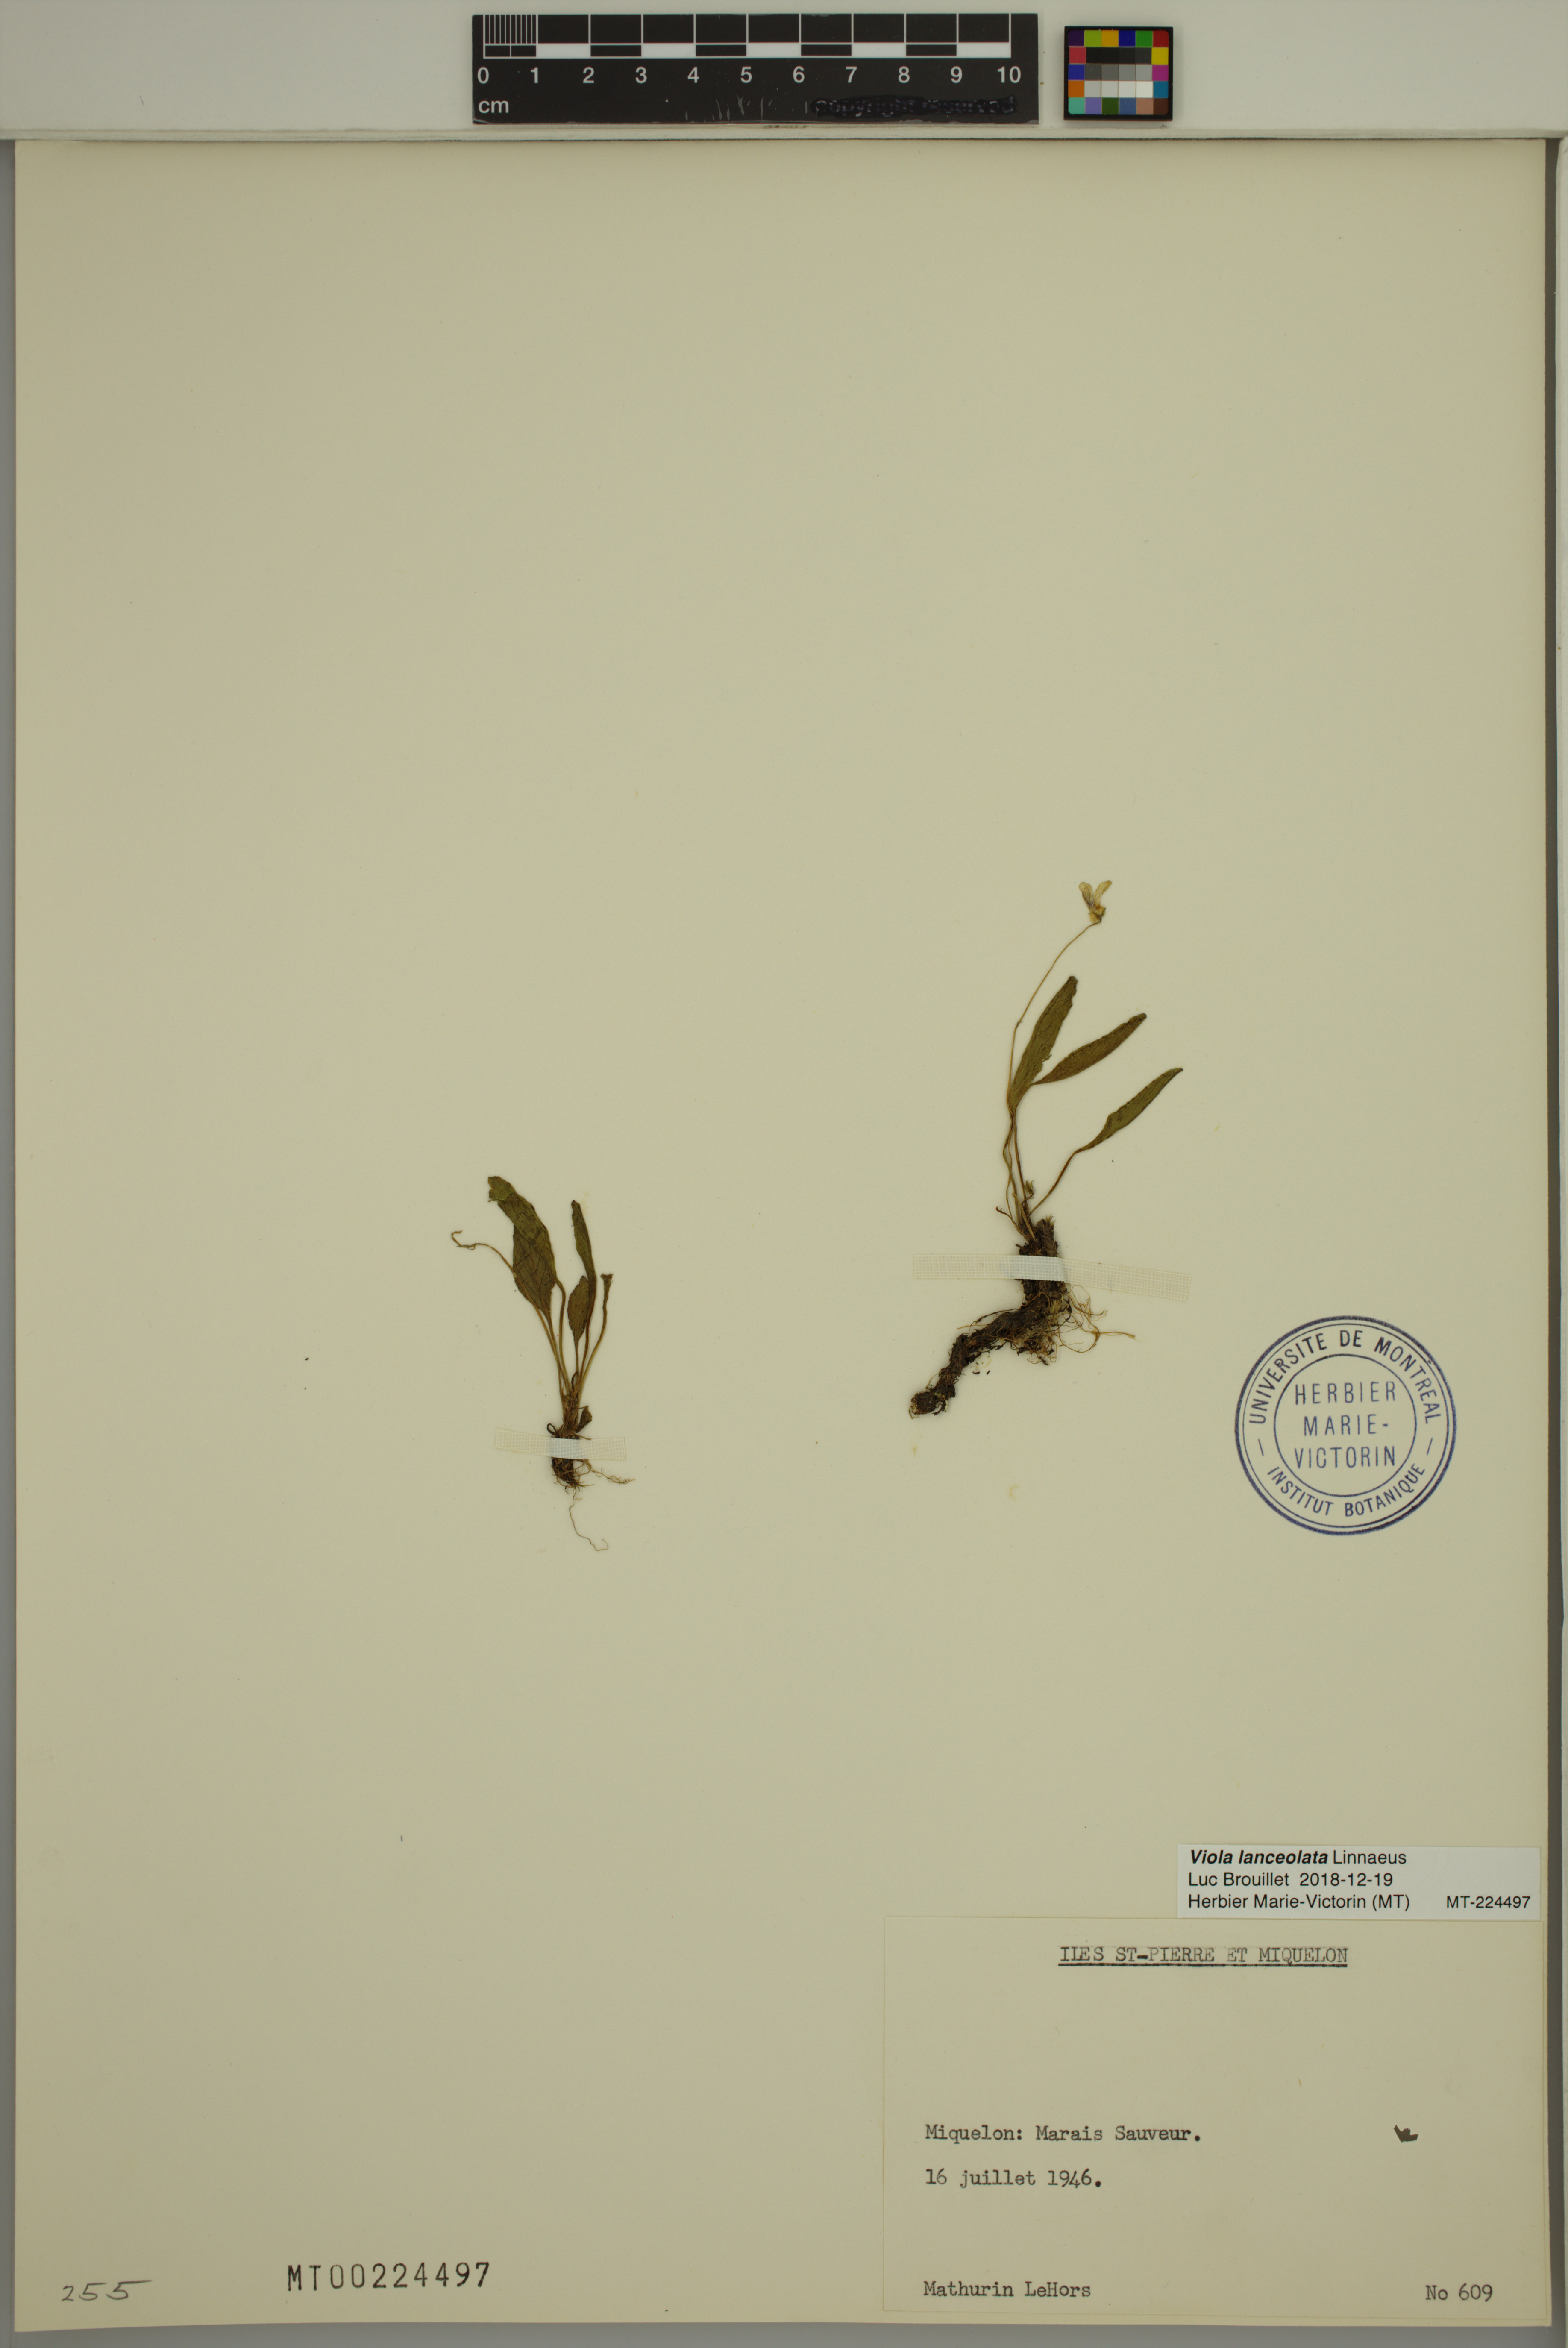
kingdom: Plantae
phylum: Tracheophyta
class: Magnoliopsida
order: Malpighiales
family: Violaceae
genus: Viola
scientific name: Viola lanceolata
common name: Bog white violet
